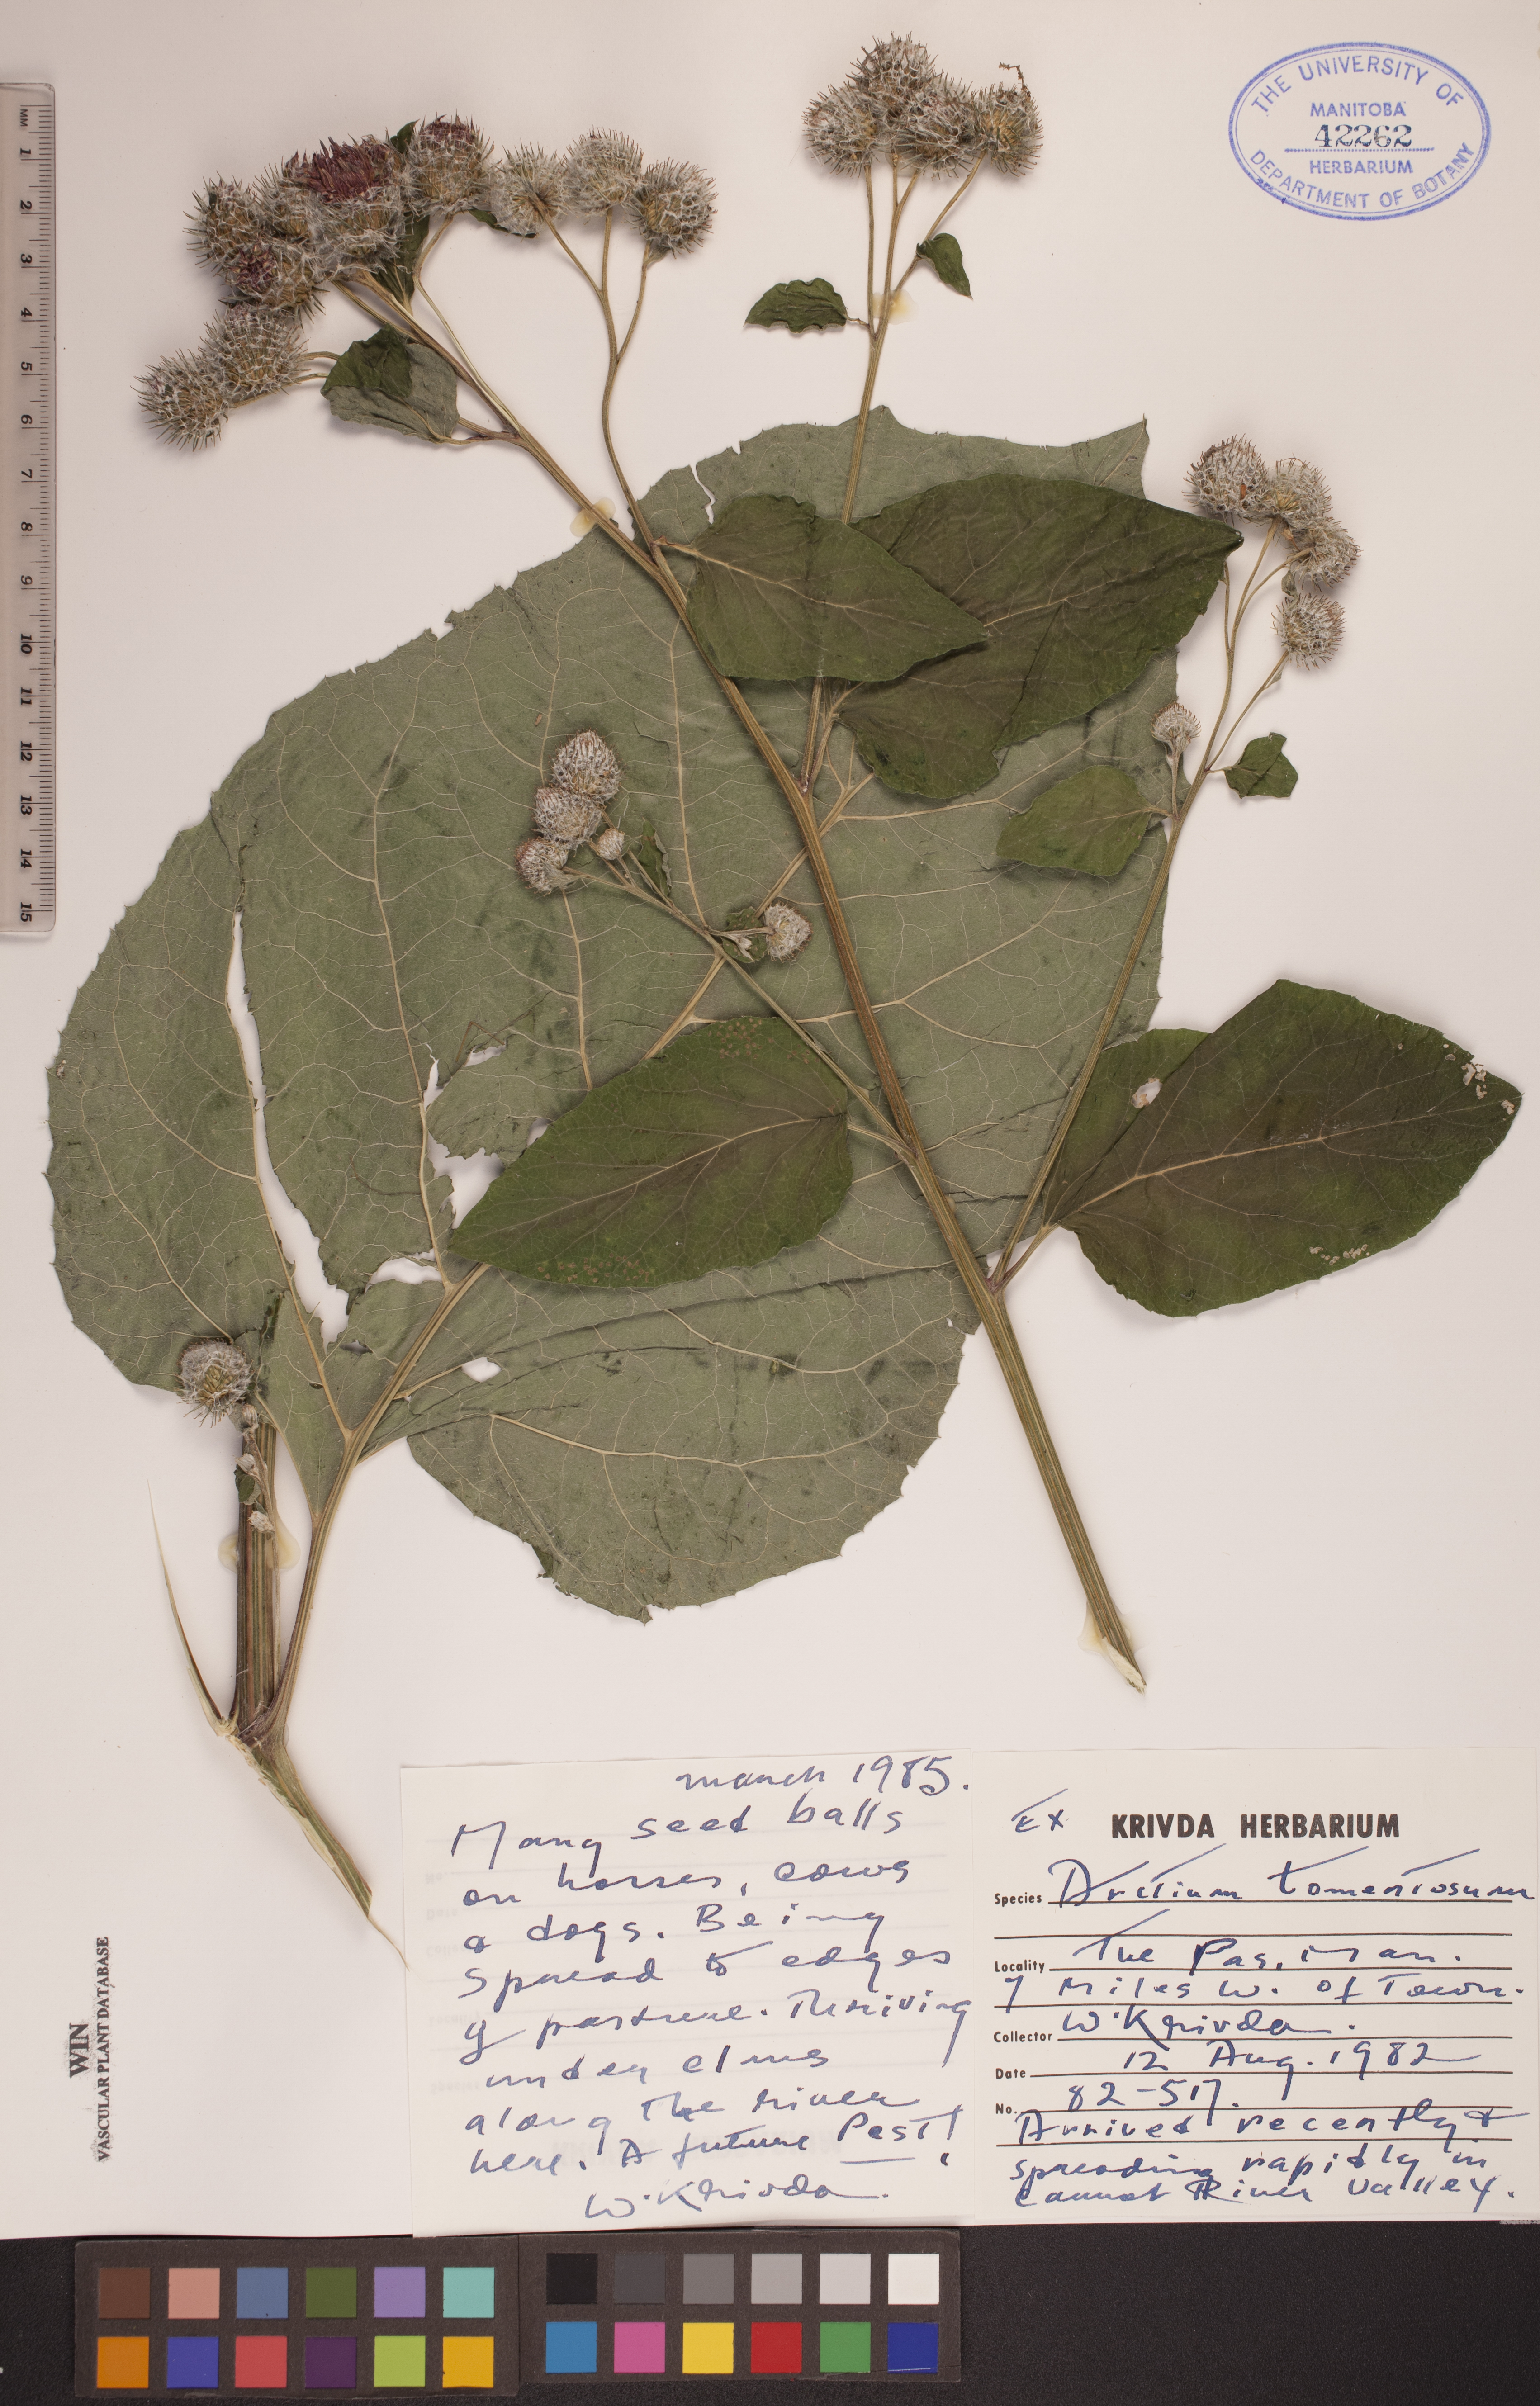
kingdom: Plantae
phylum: Tracheophyta
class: Magnoliopsida
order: Asterales
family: Asteraceae
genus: Arctium
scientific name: Arctium tomentosum
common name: Woolly burdock
